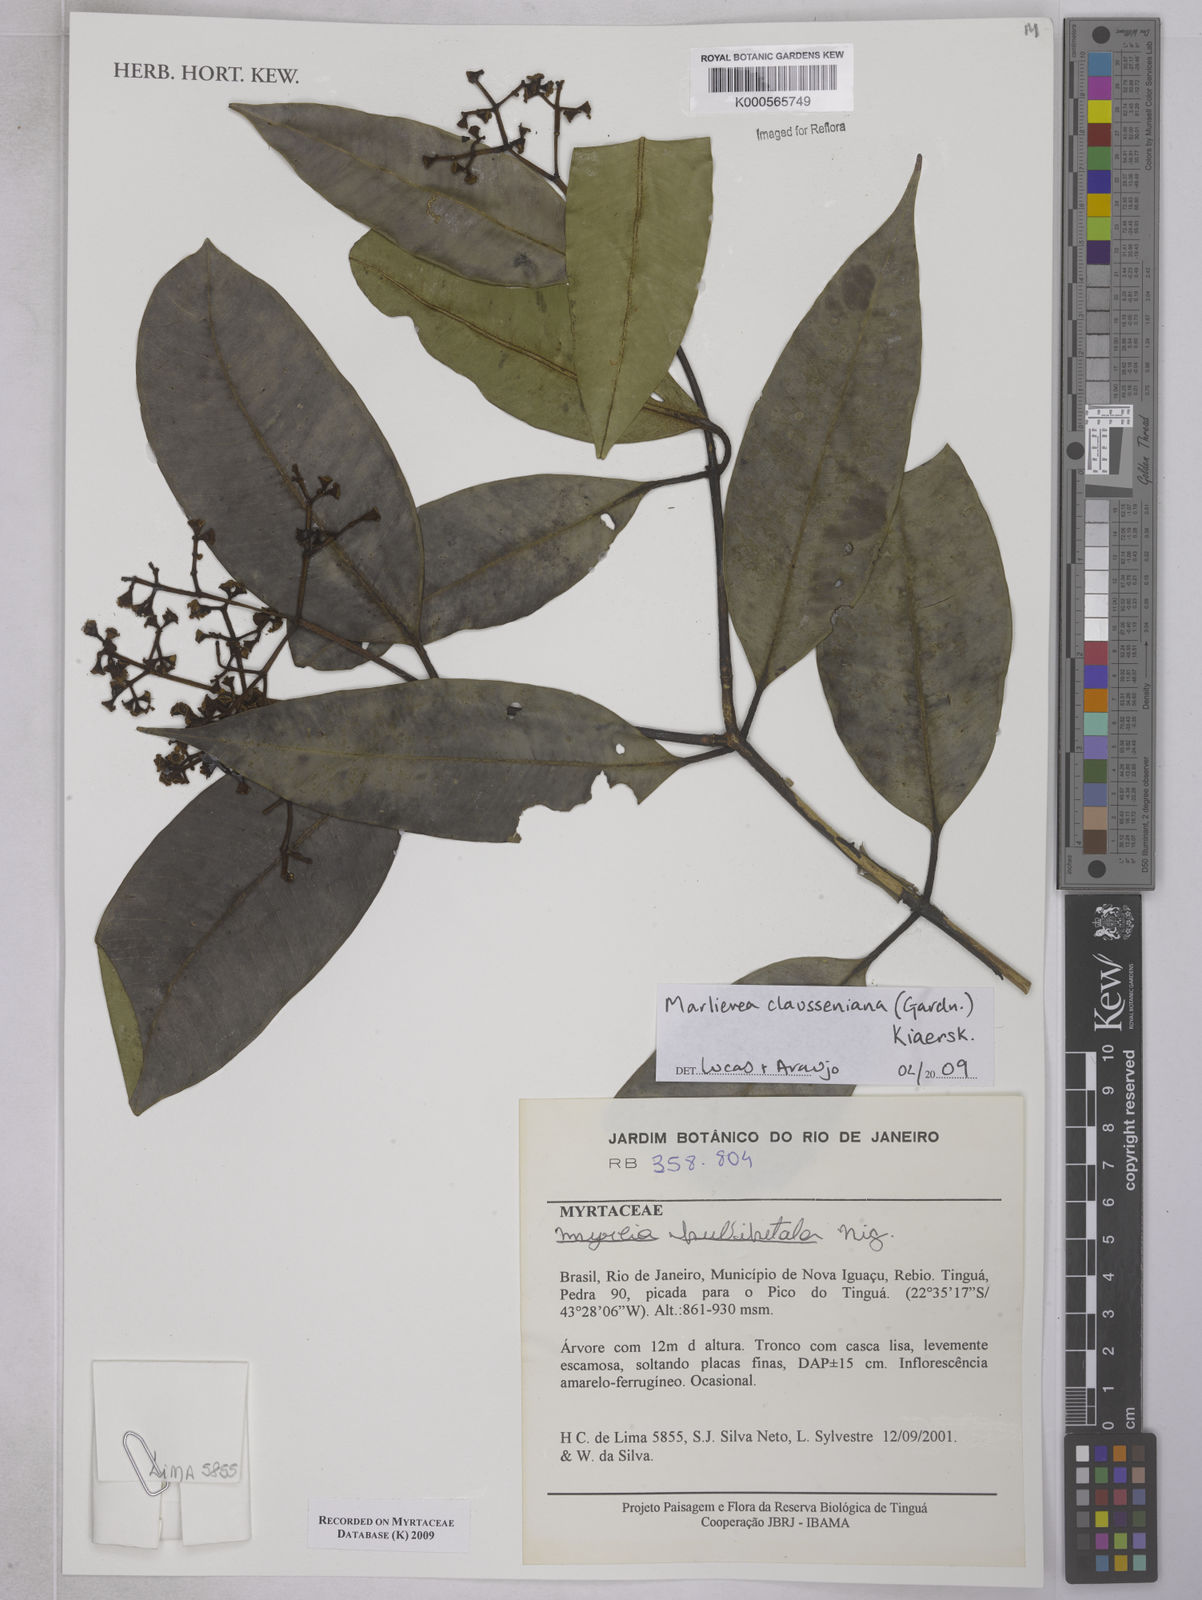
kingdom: Plantae
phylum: Tracheophyta
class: Magnoliopsida
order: Myrtales
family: Myrtaceae
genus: Marlierea
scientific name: Marlierea clausseniana
